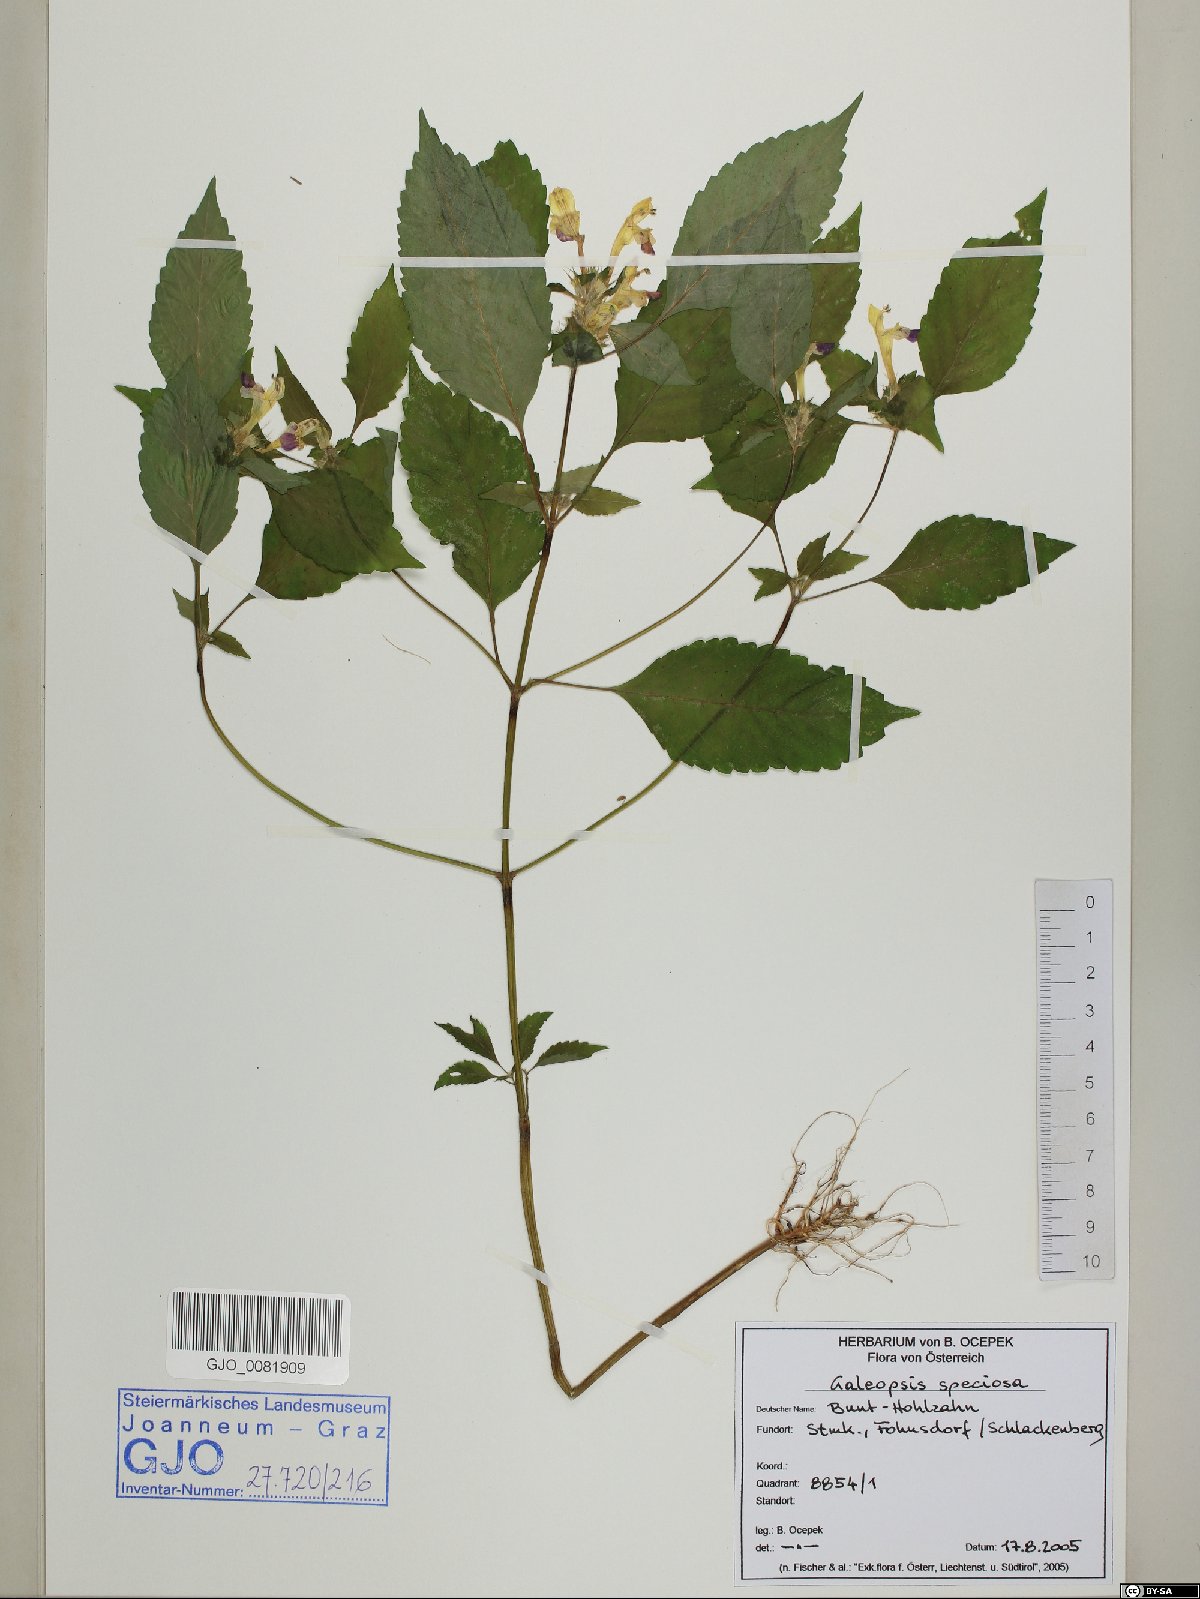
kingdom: Plantae
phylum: Tracheophyta
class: Magnoliopsida
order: Lamiales
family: Lamiaceae
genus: Galeopsis
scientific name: Galeopsis speciosa
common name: Large-flowered hemp-nettle
